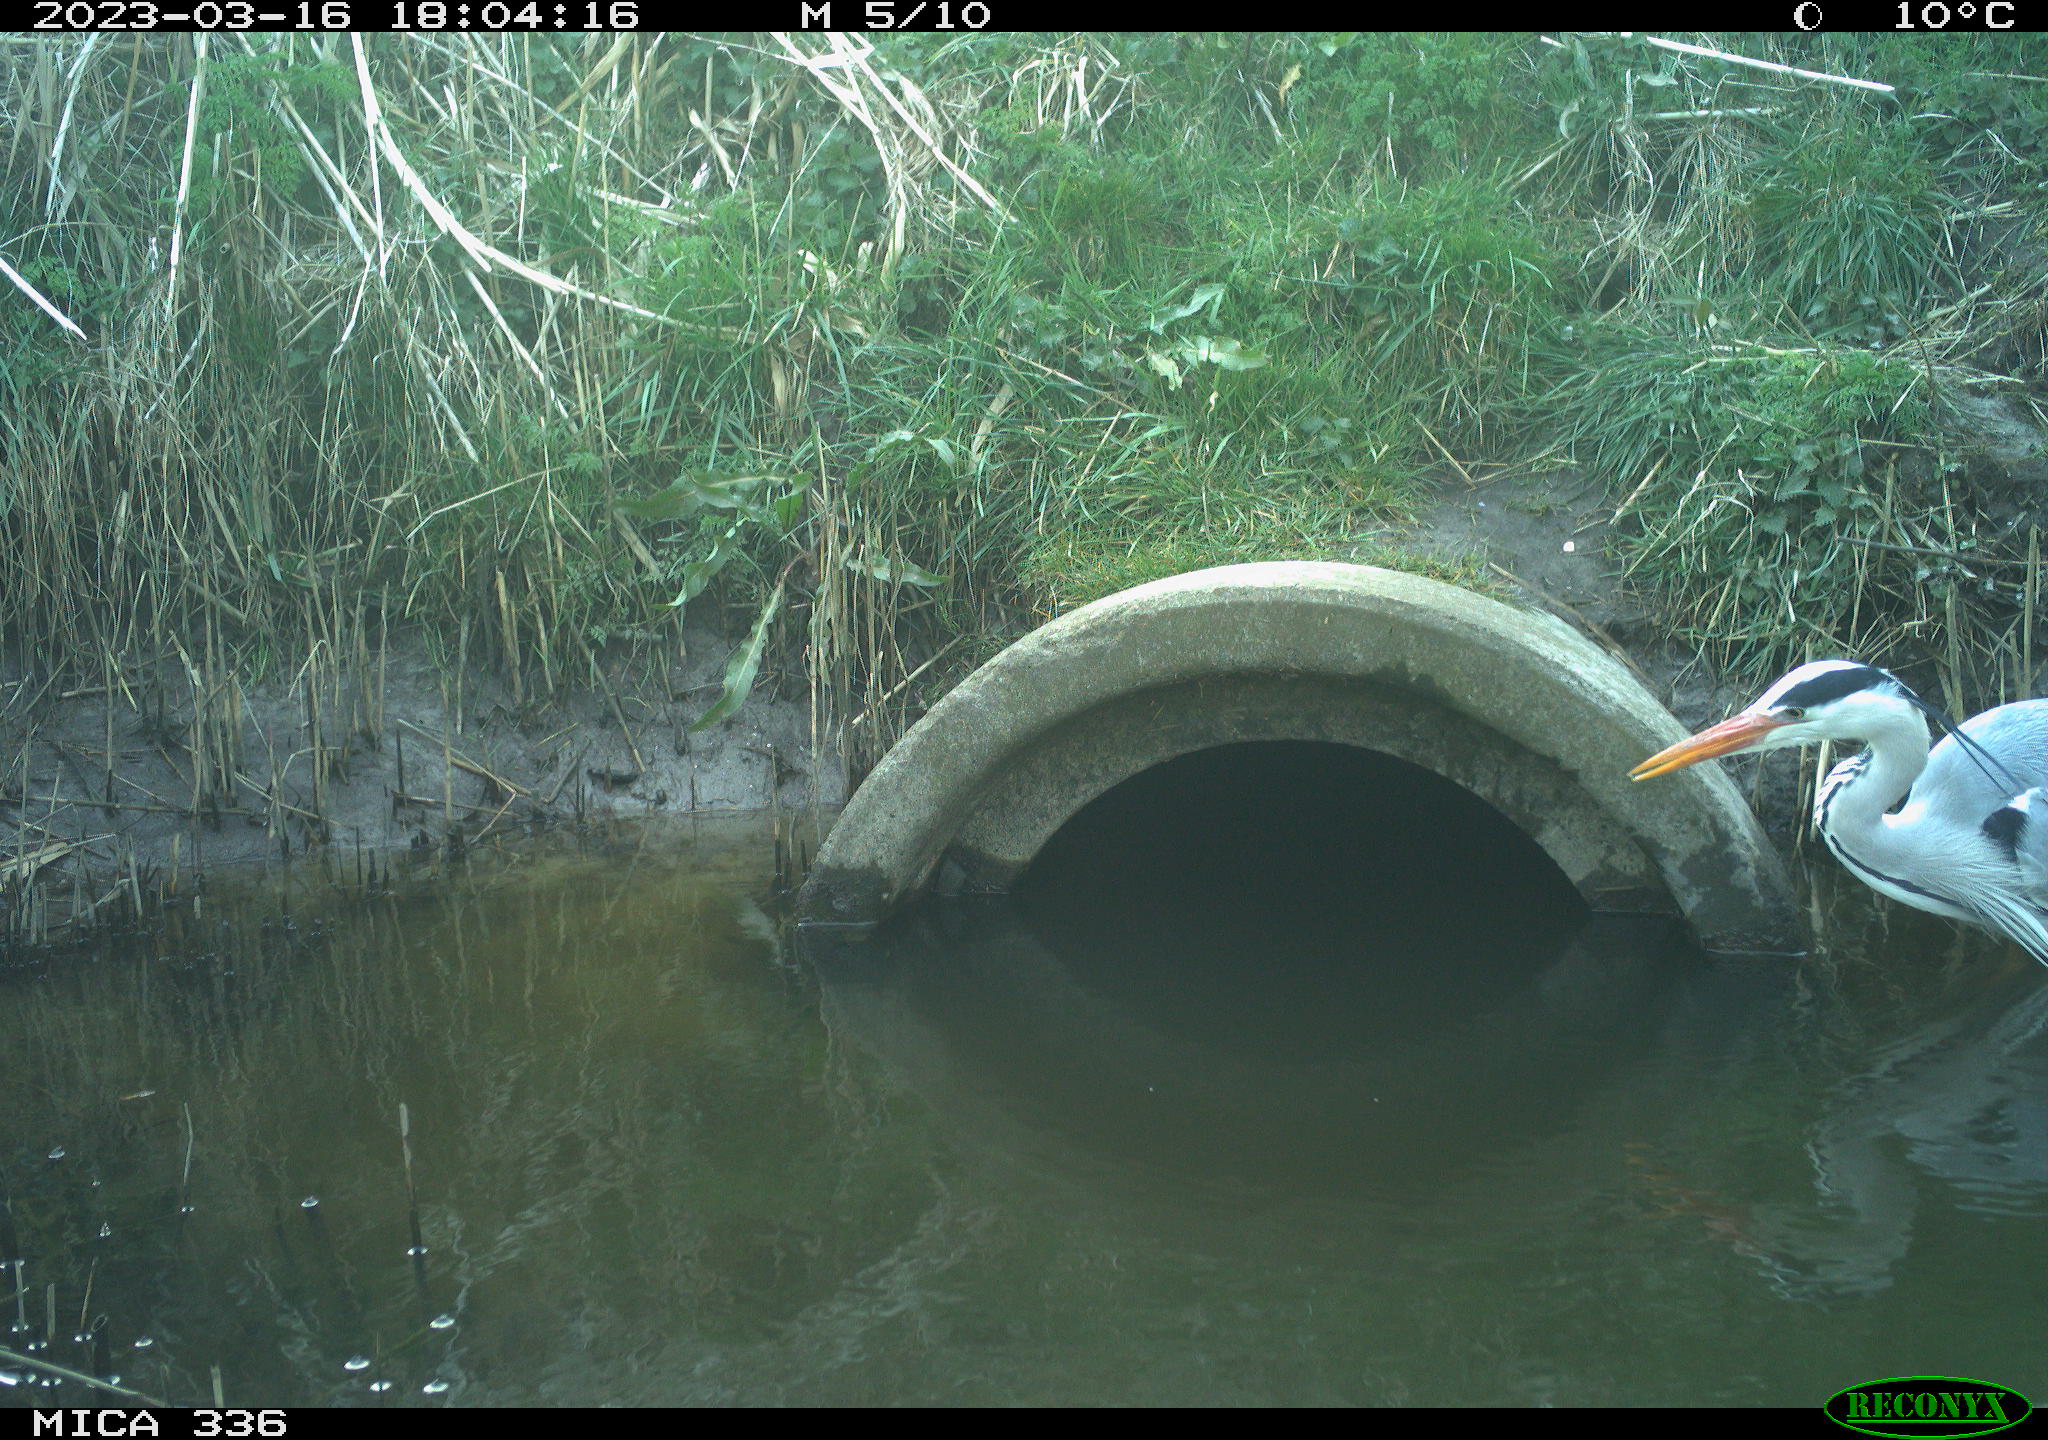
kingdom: Animalia
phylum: Chordata
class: Aves
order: Pelecaniformes
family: Ardeidae
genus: Ardea
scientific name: Ardea cinerea
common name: Grey heron
